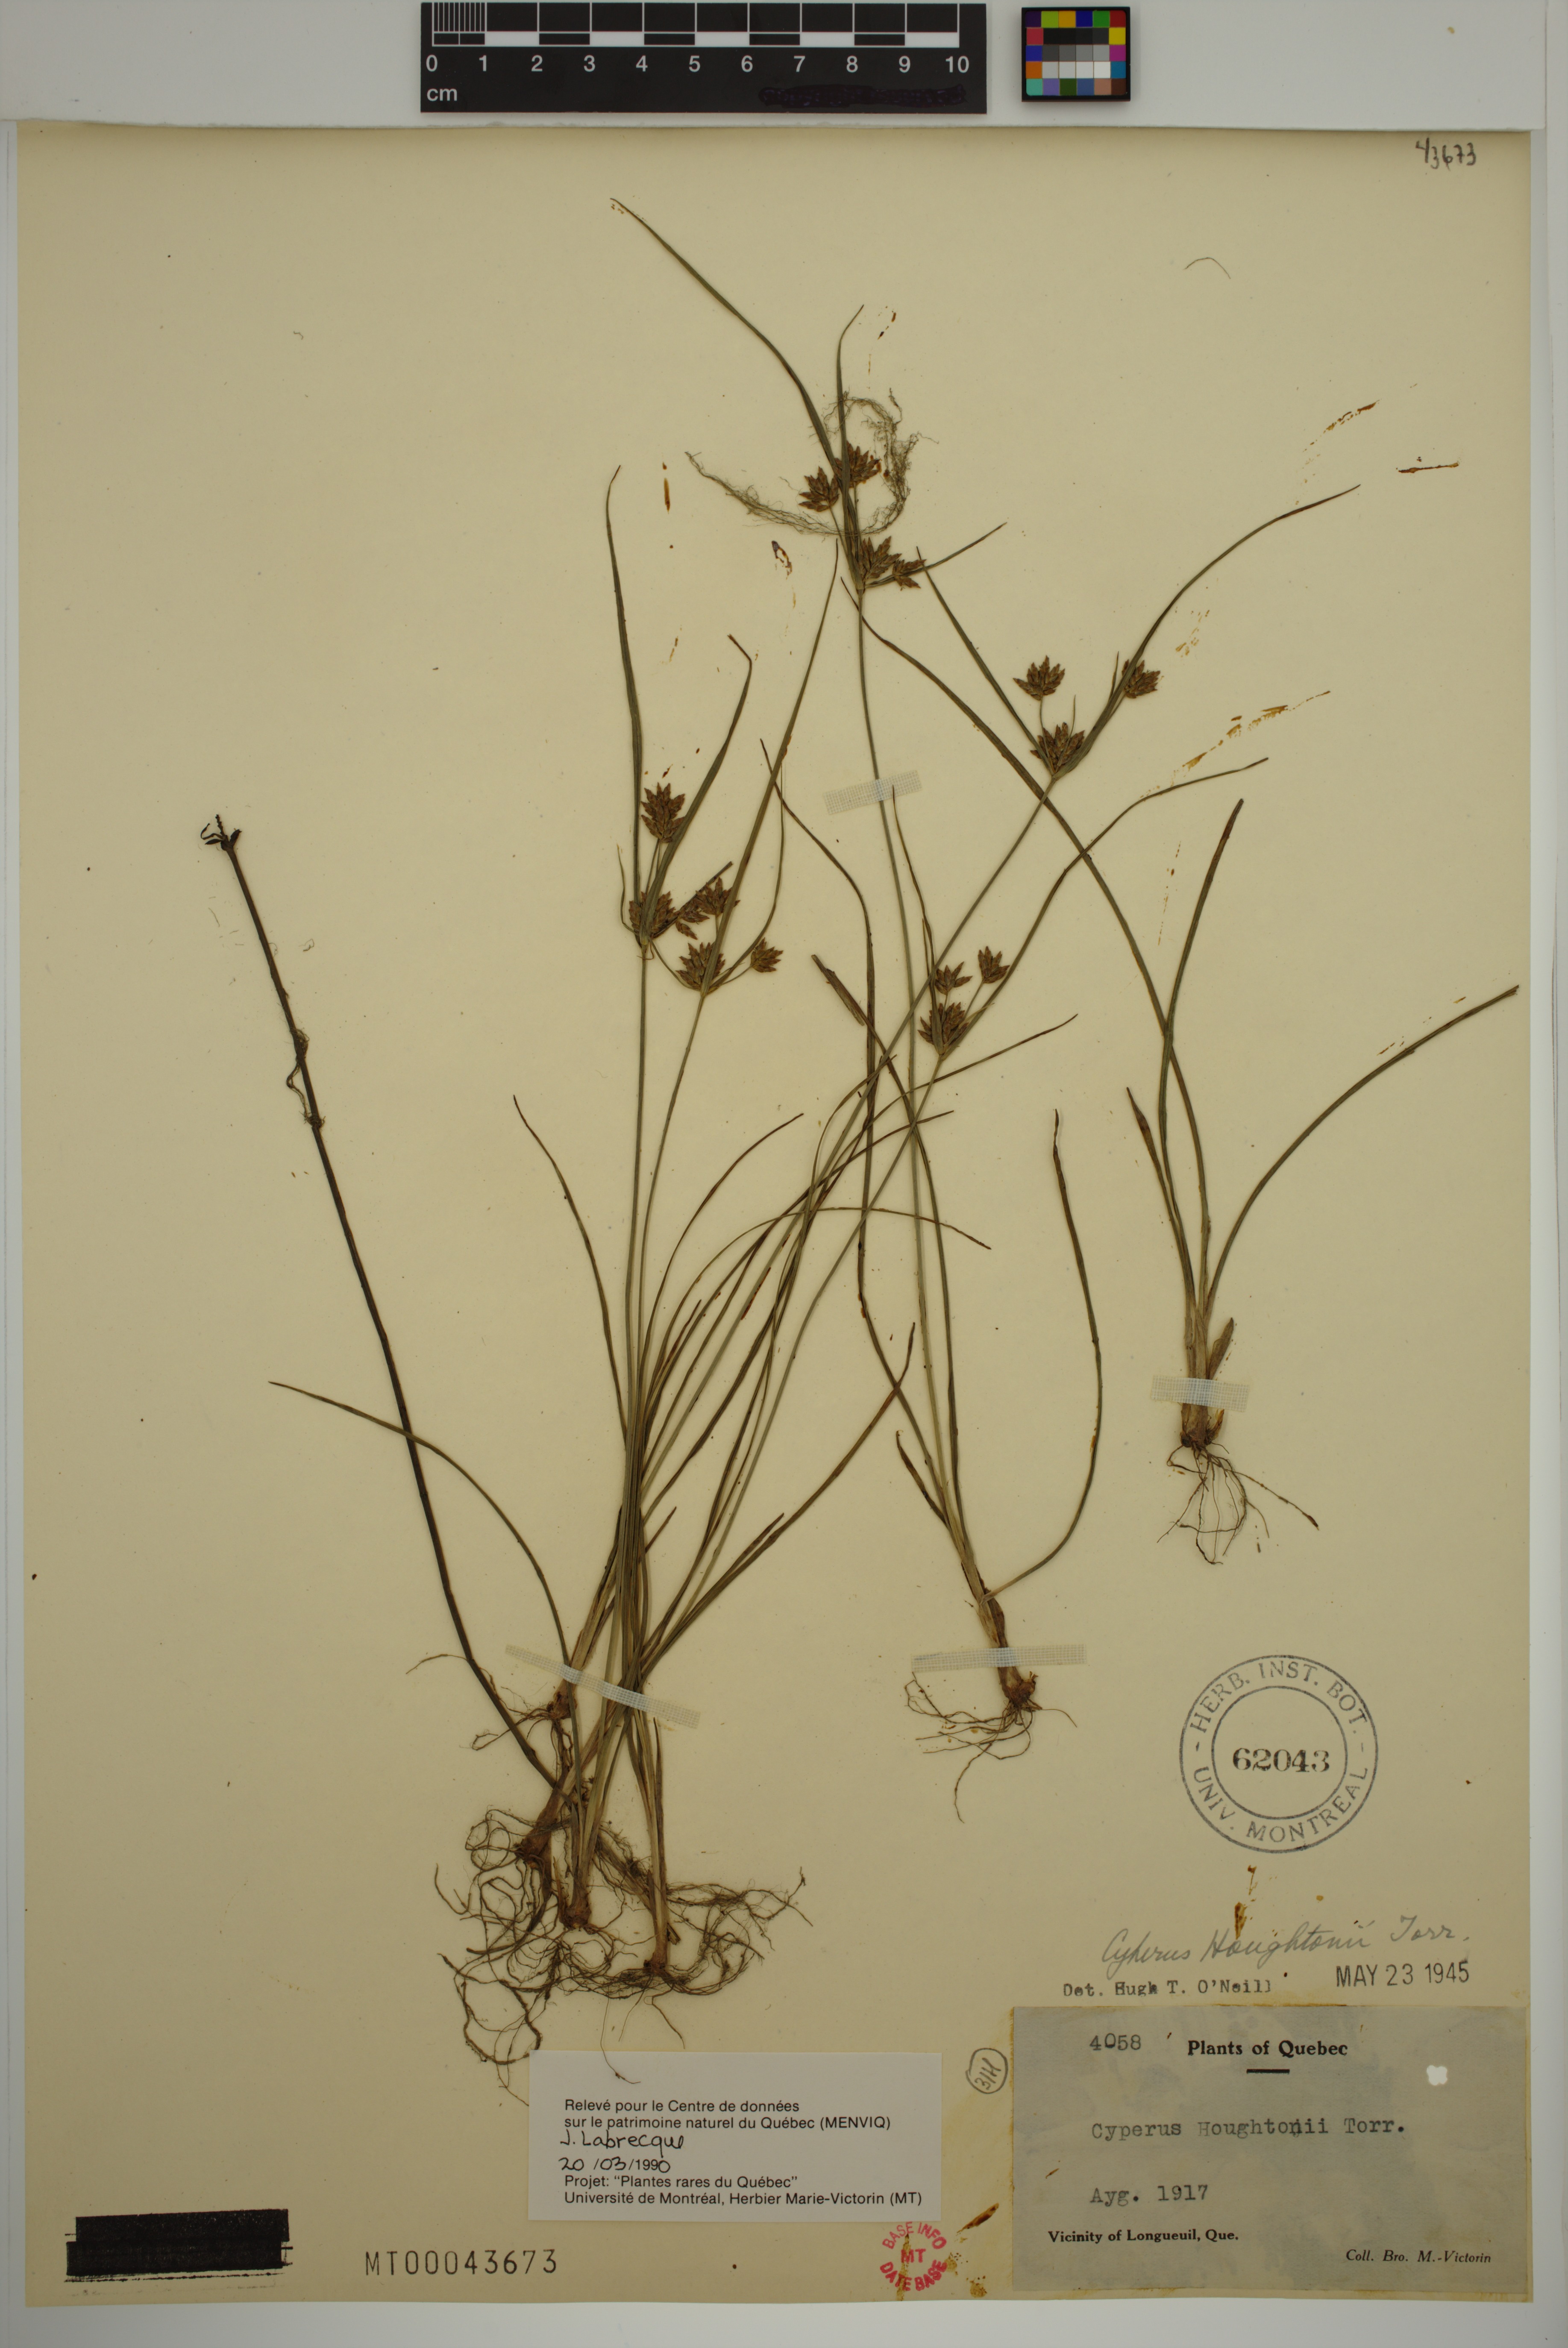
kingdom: Plantae
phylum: Tracheophyta
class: Liliopsida
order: Poales
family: Cyperaceae
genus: Cyperus
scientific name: Cyperus houghtonii
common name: Houghton's cyperus
